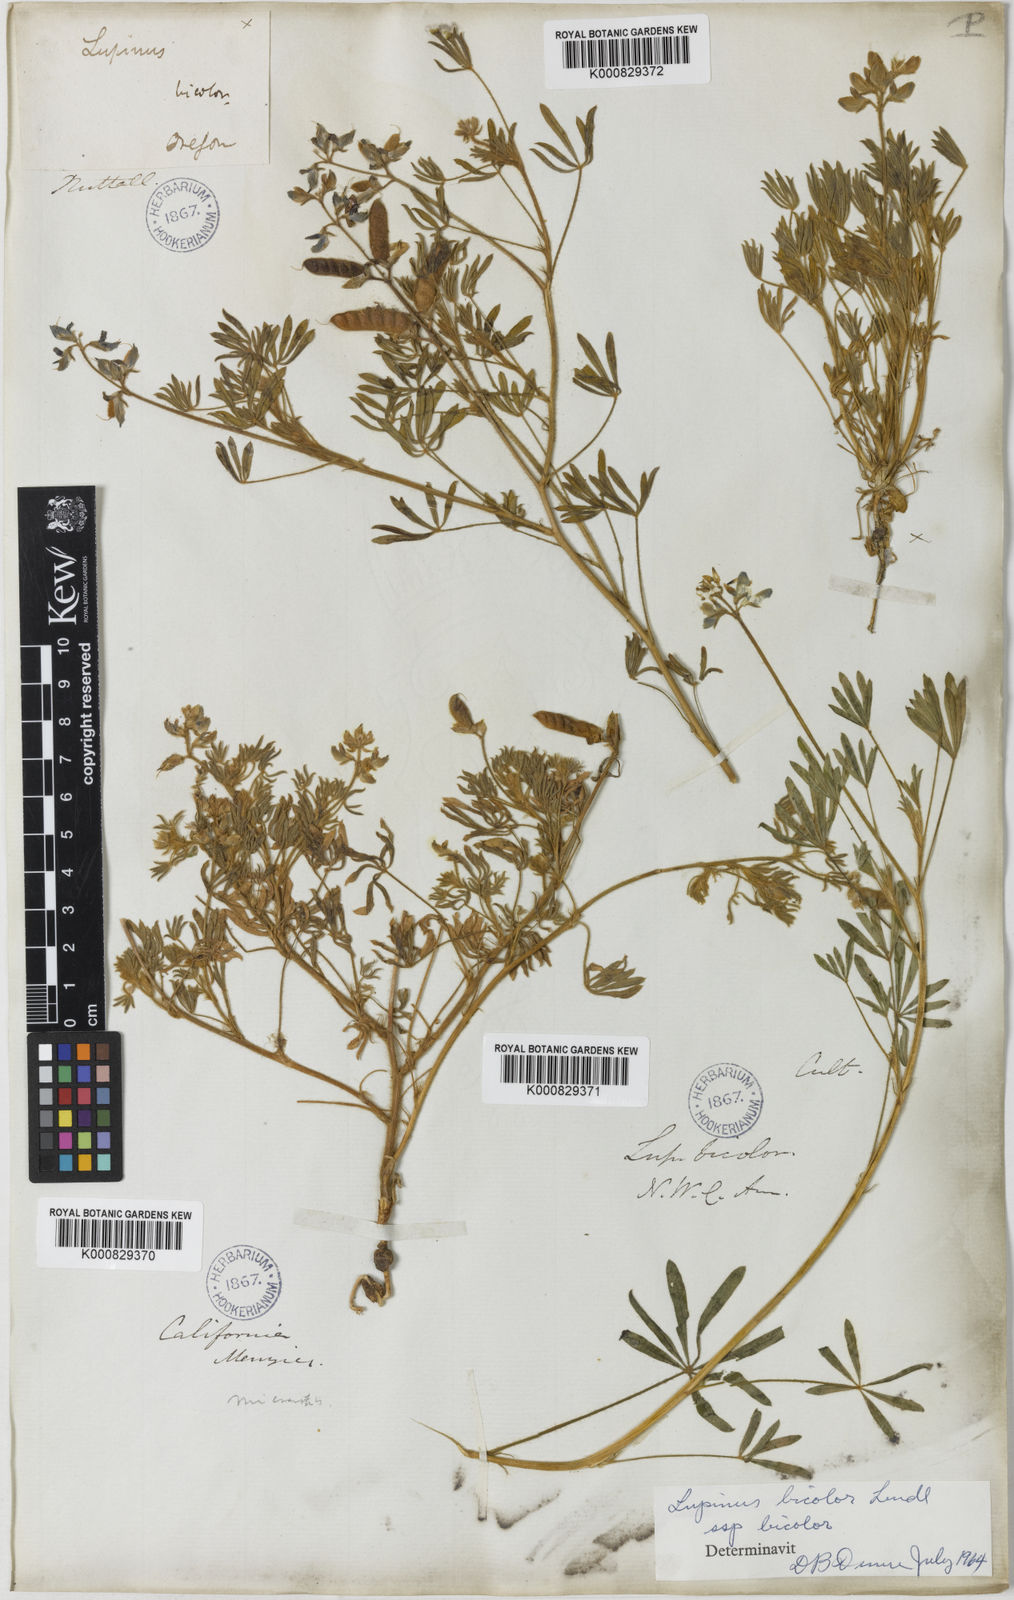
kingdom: Plantae
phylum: Tracheophyta
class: Magnoliopsida
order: Fabales
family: Fabaceae
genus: Lupinus
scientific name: Lupinus bicolor
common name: Miniature lupine
